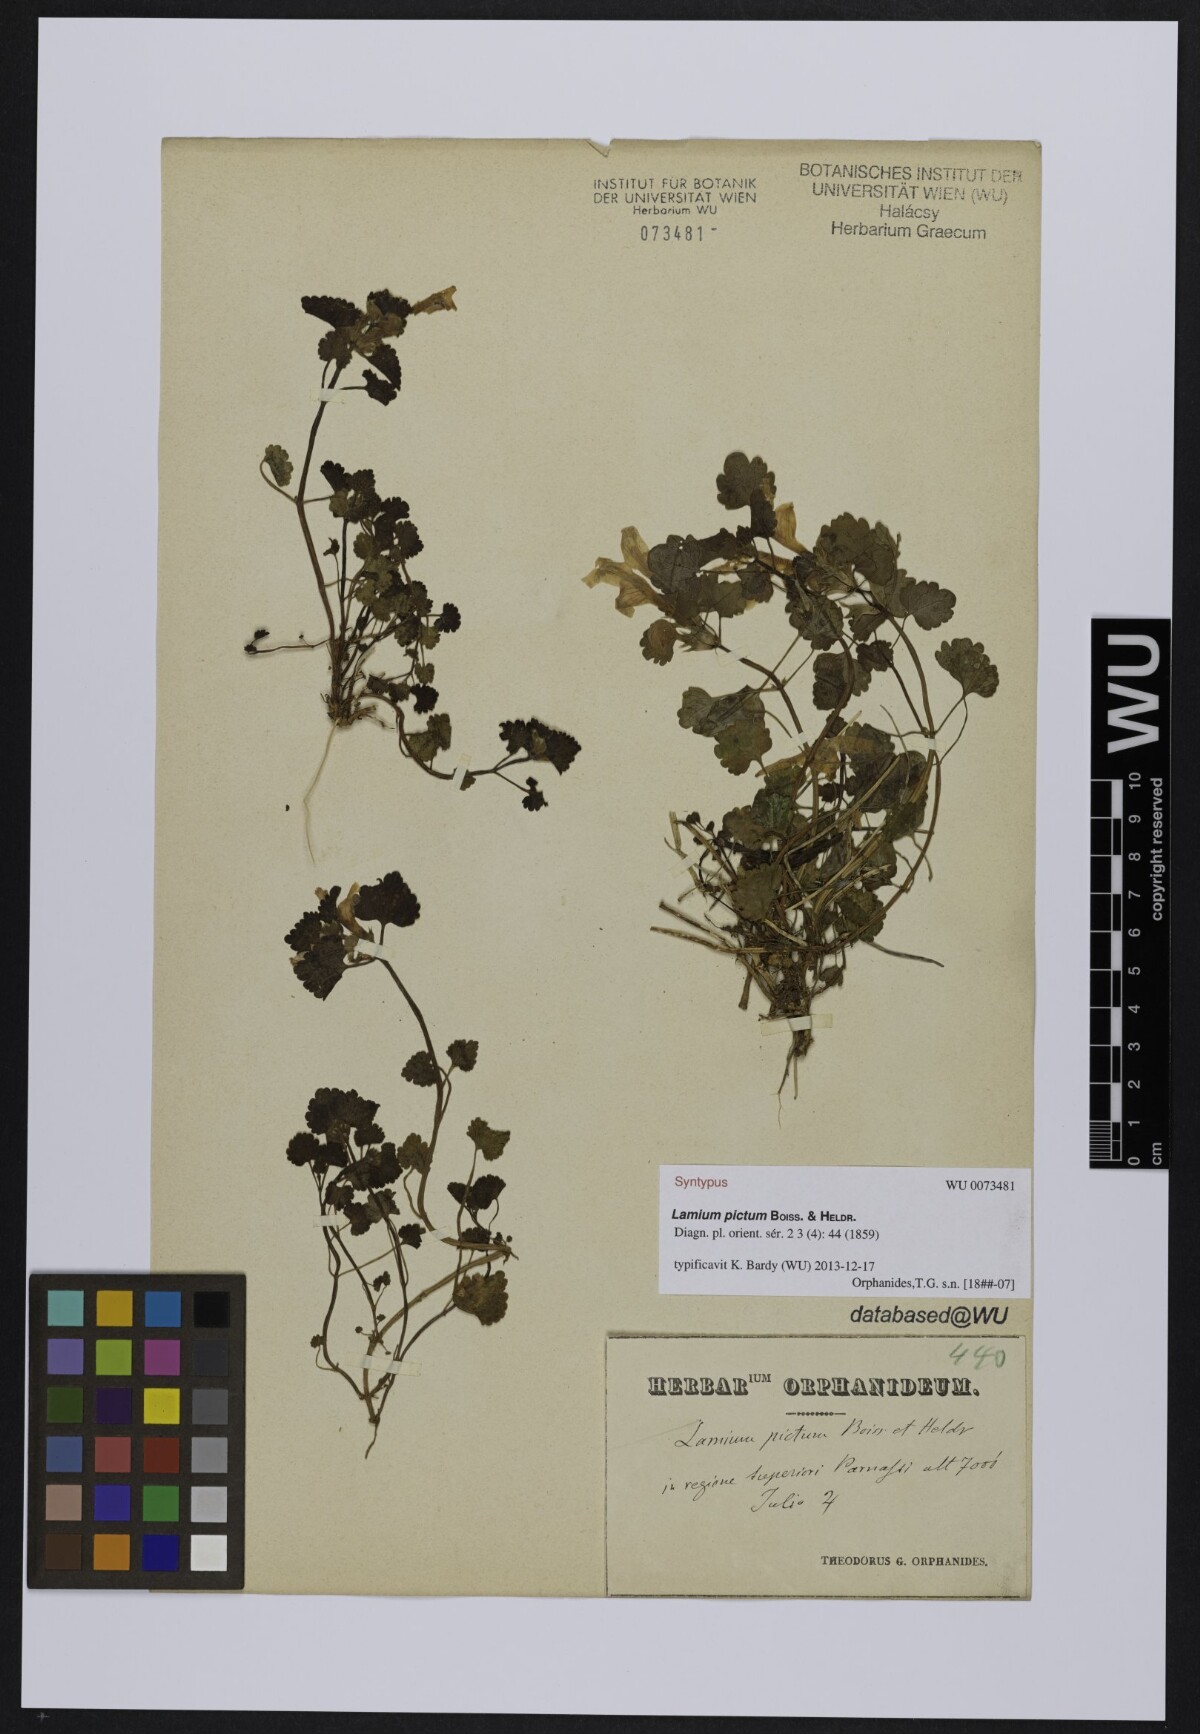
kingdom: Plantae
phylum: Tracheophyta
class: Magnoliopsida
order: Lamiales
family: Lamiaceae
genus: Lamium
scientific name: Lamium garganicum
